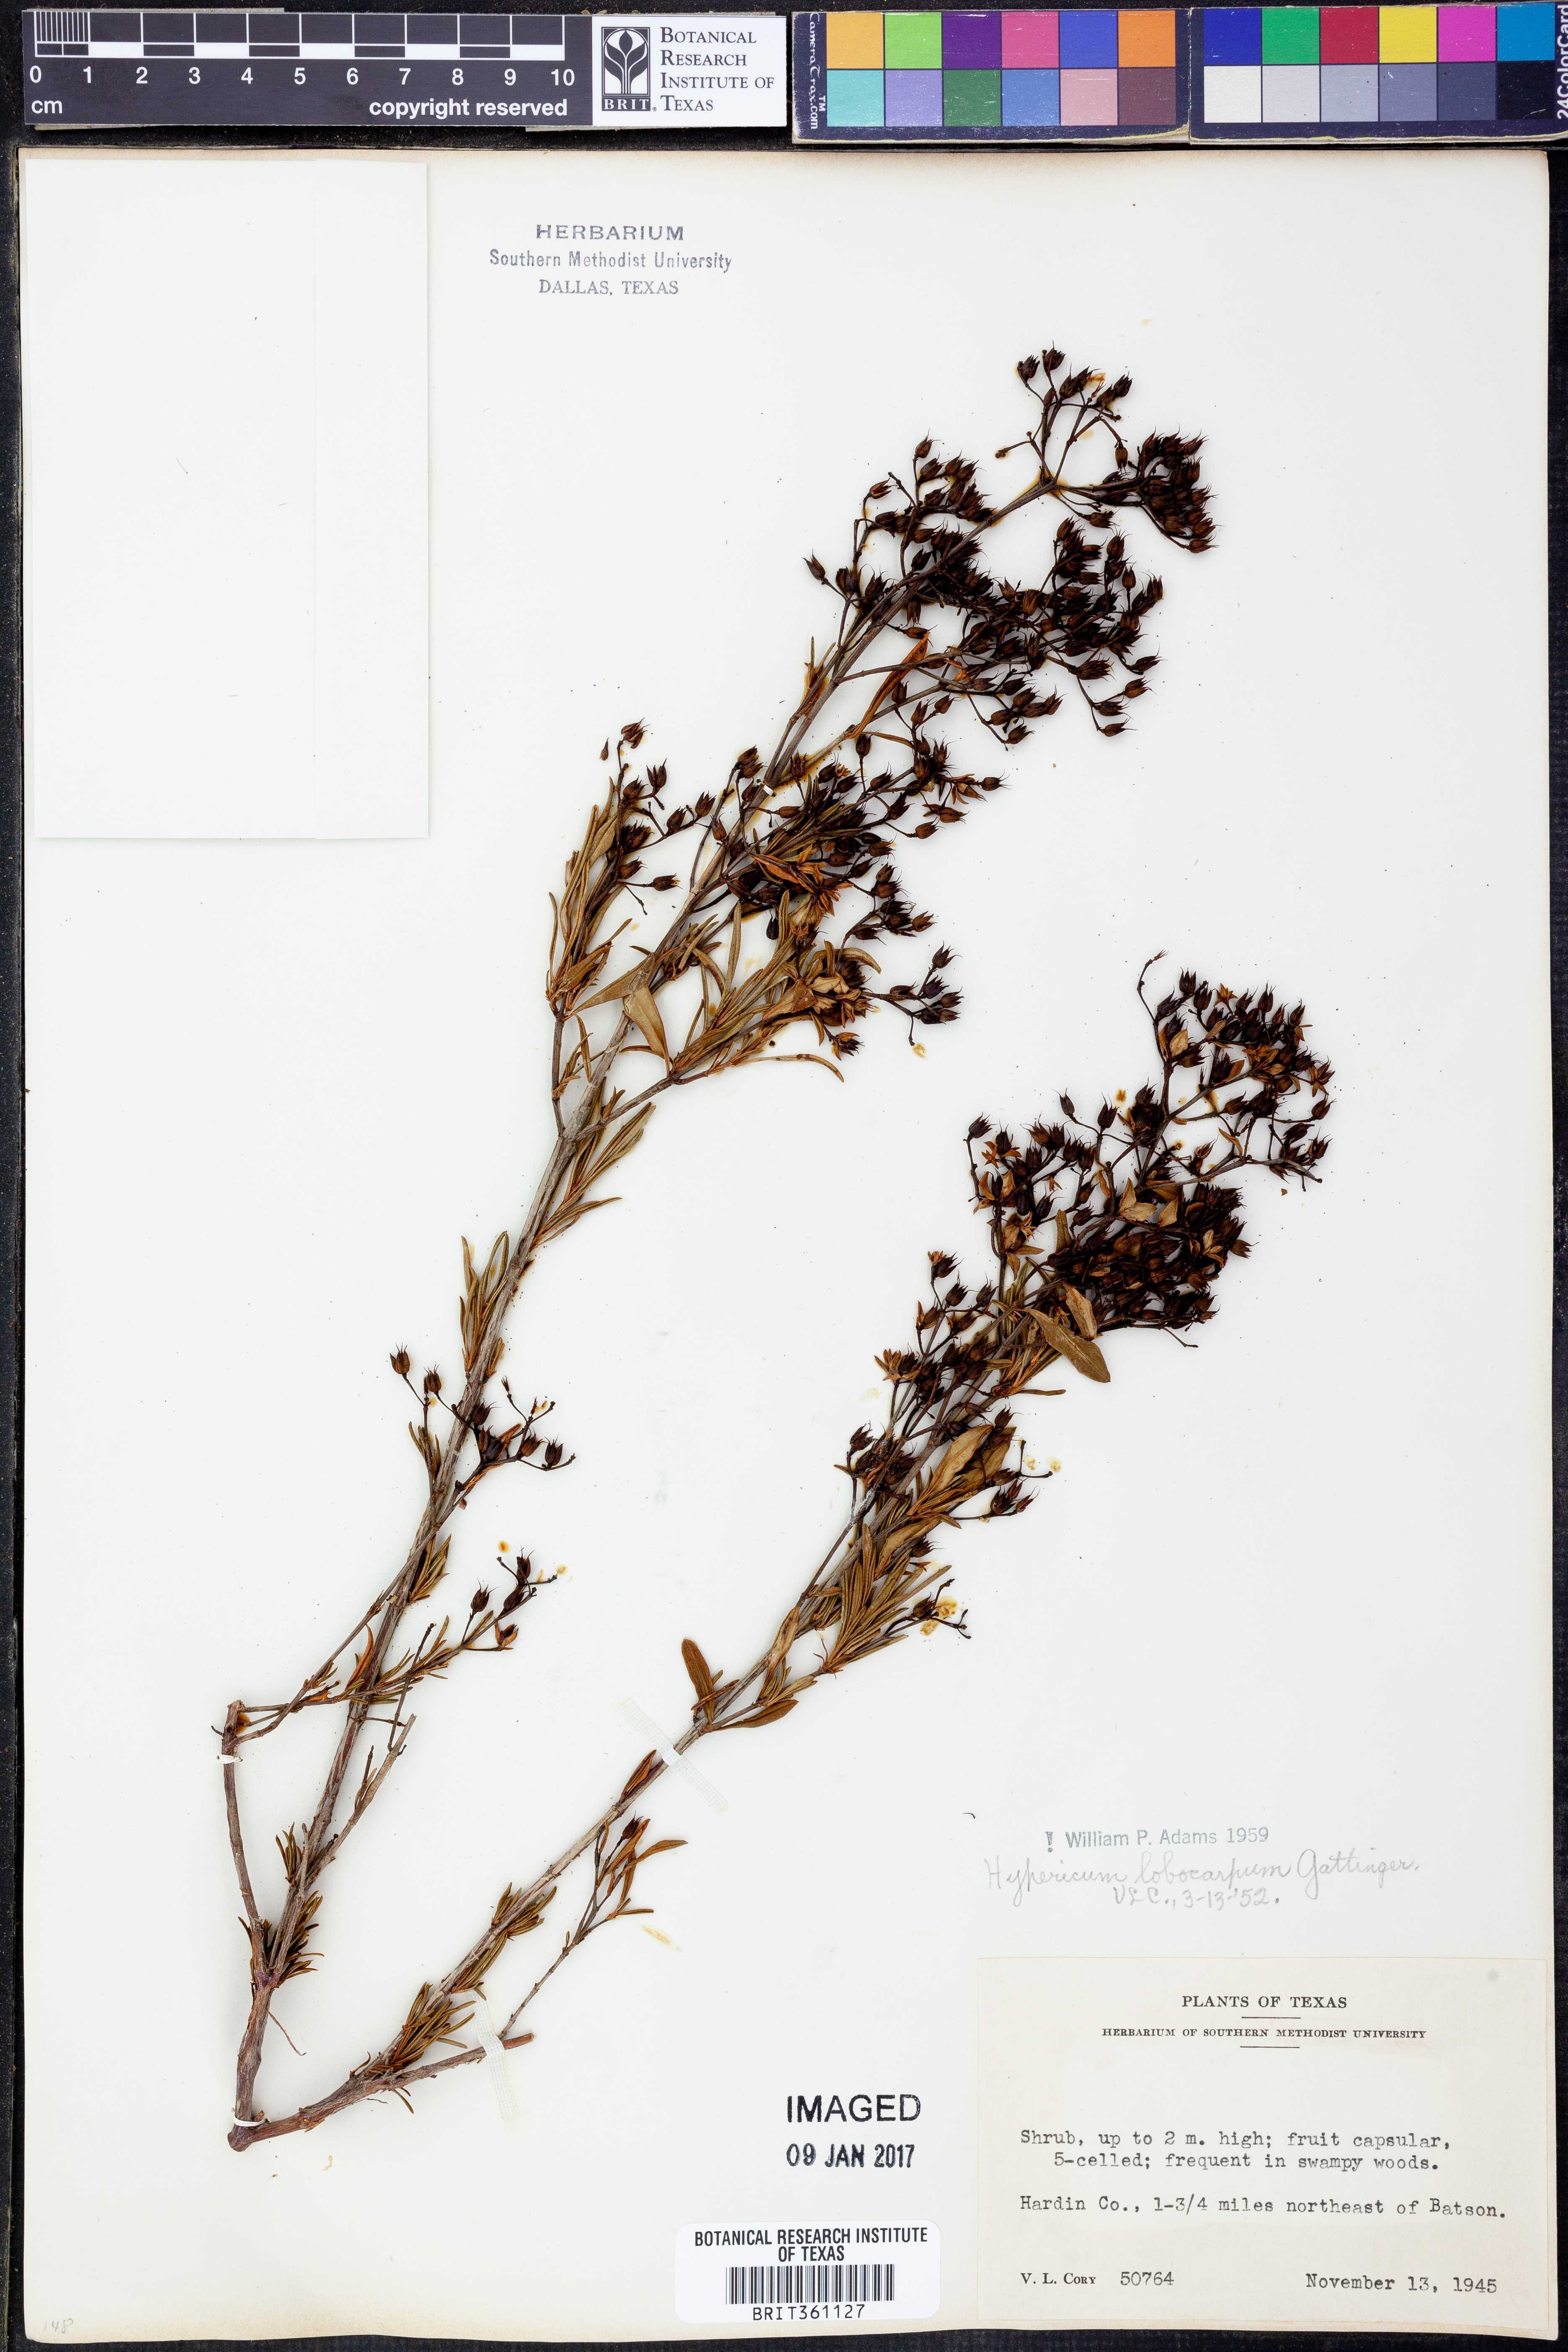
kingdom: Plantae
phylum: Tracheophyta
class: Magnoliopsida
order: Malpighiales
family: Hypericaceae
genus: Hypericum
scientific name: Hypericum lobocarpum
